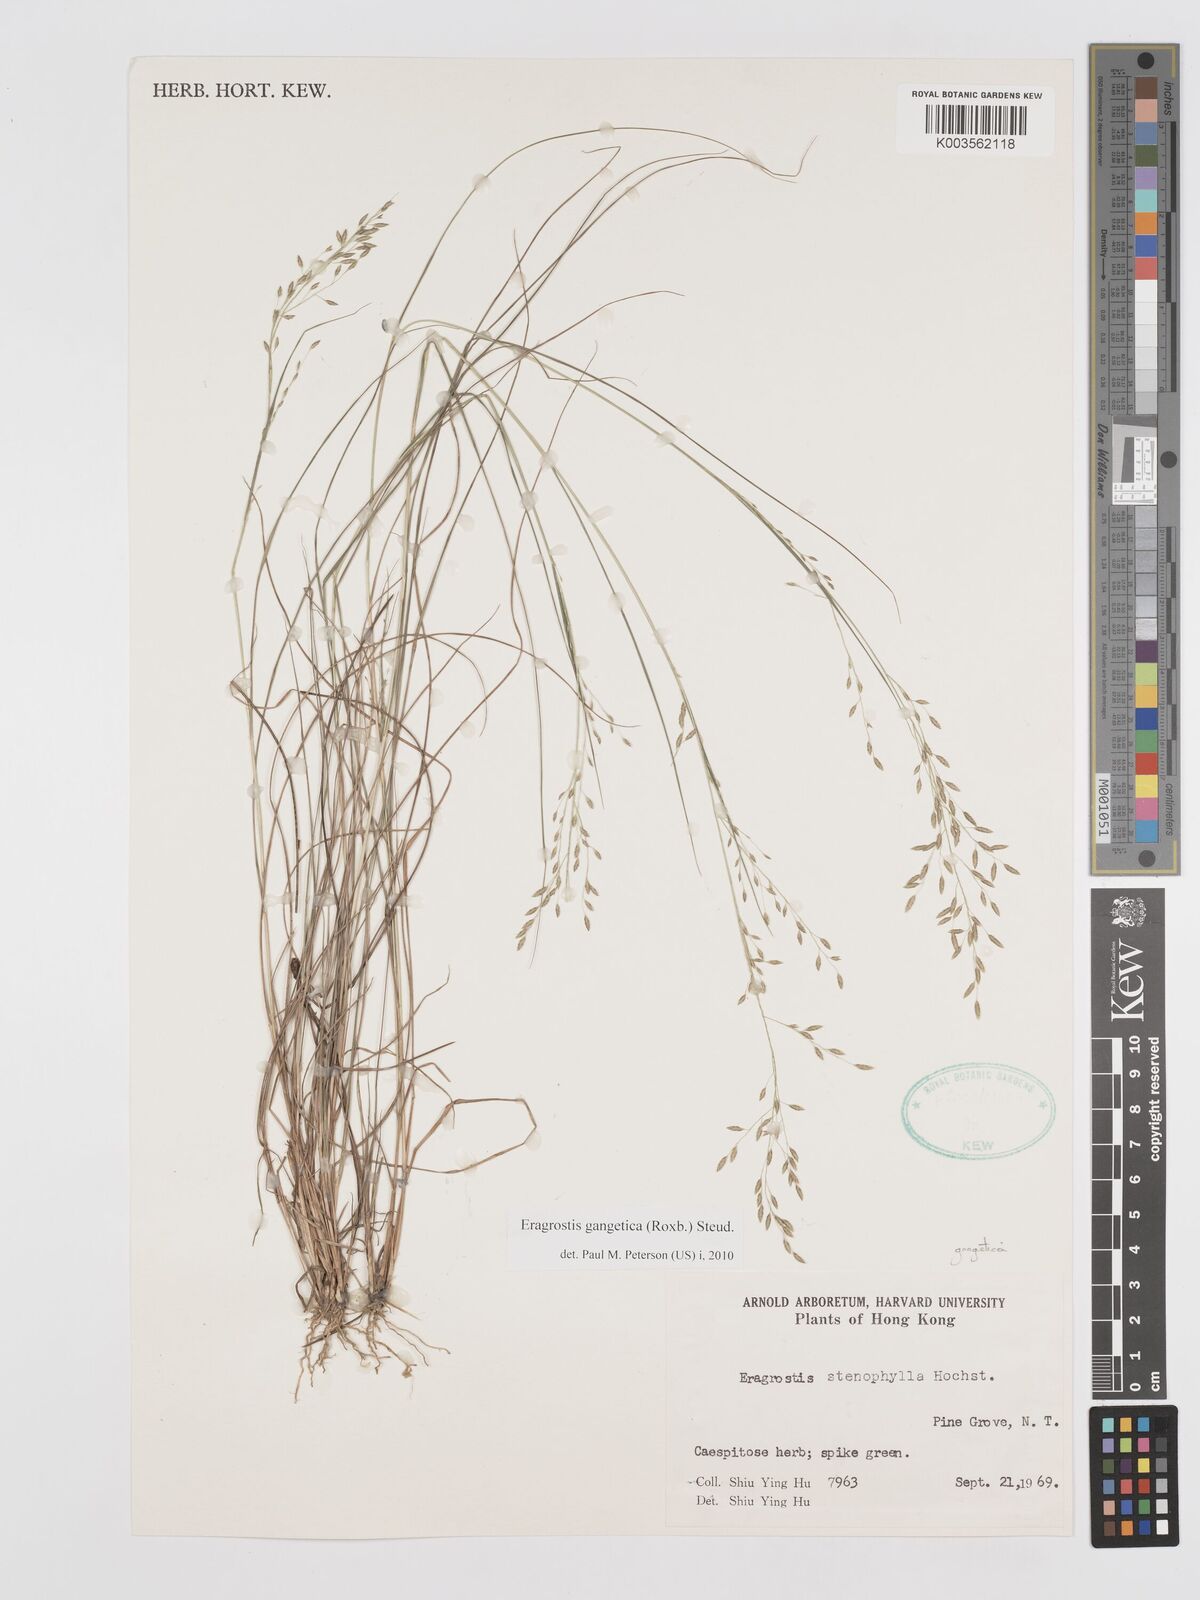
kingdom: Plantae
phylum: Tracheophyta
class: Liliopsida
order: Poales
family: Poaceae
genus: Eragrostis
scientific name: Eragrostis gangetica
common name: Slimflower lovegrass
